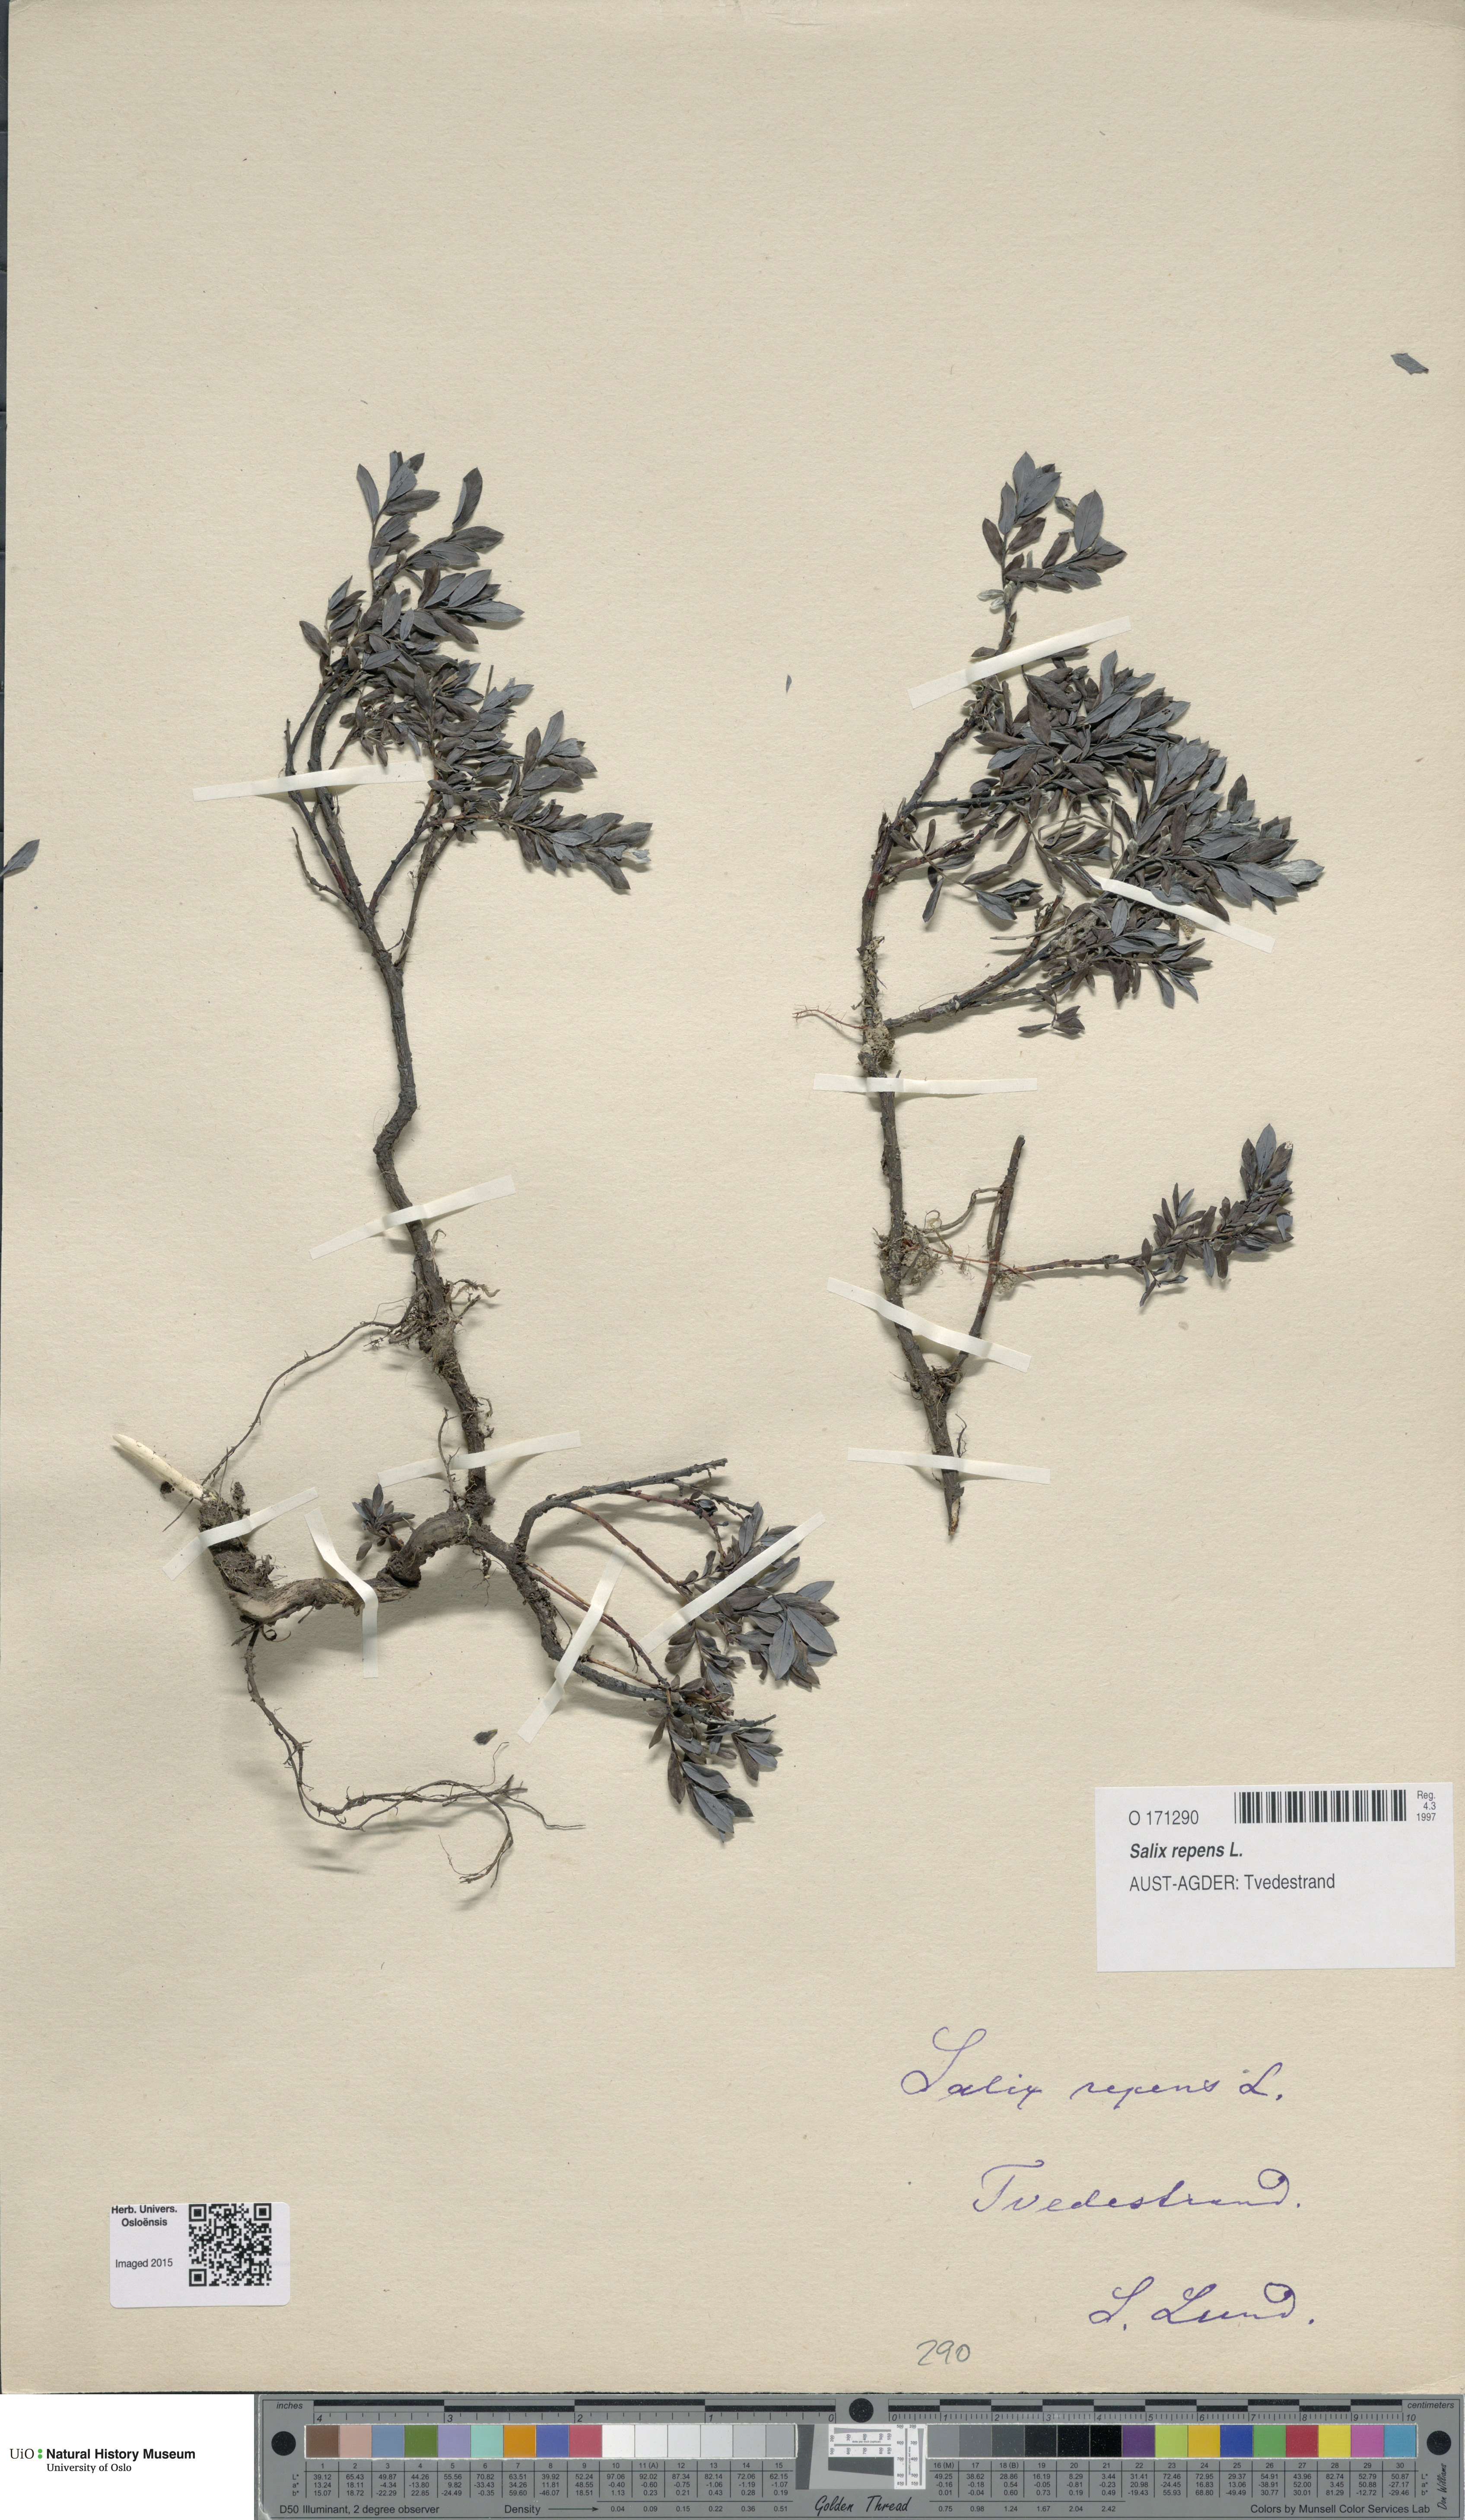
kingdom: Plantae
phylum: Tracheophyta
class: Magnoliopsida
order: Malpighiales
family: Salicaceae
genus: Salix
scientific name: Salix repens
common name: Creeping willow
